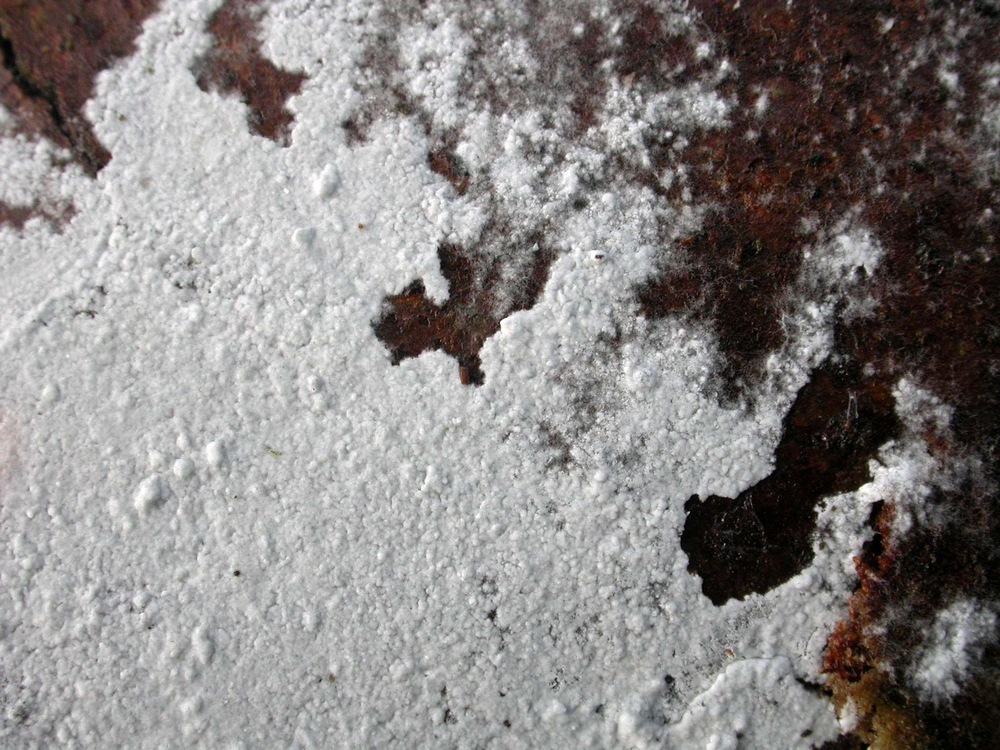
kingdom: Fungi
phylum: Basidiomycota
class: Agaricomycetes
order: Atheliales
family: Atheliaceae
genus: Athelia
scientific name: Athelia epiphylla
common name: almindelig barkhinde
